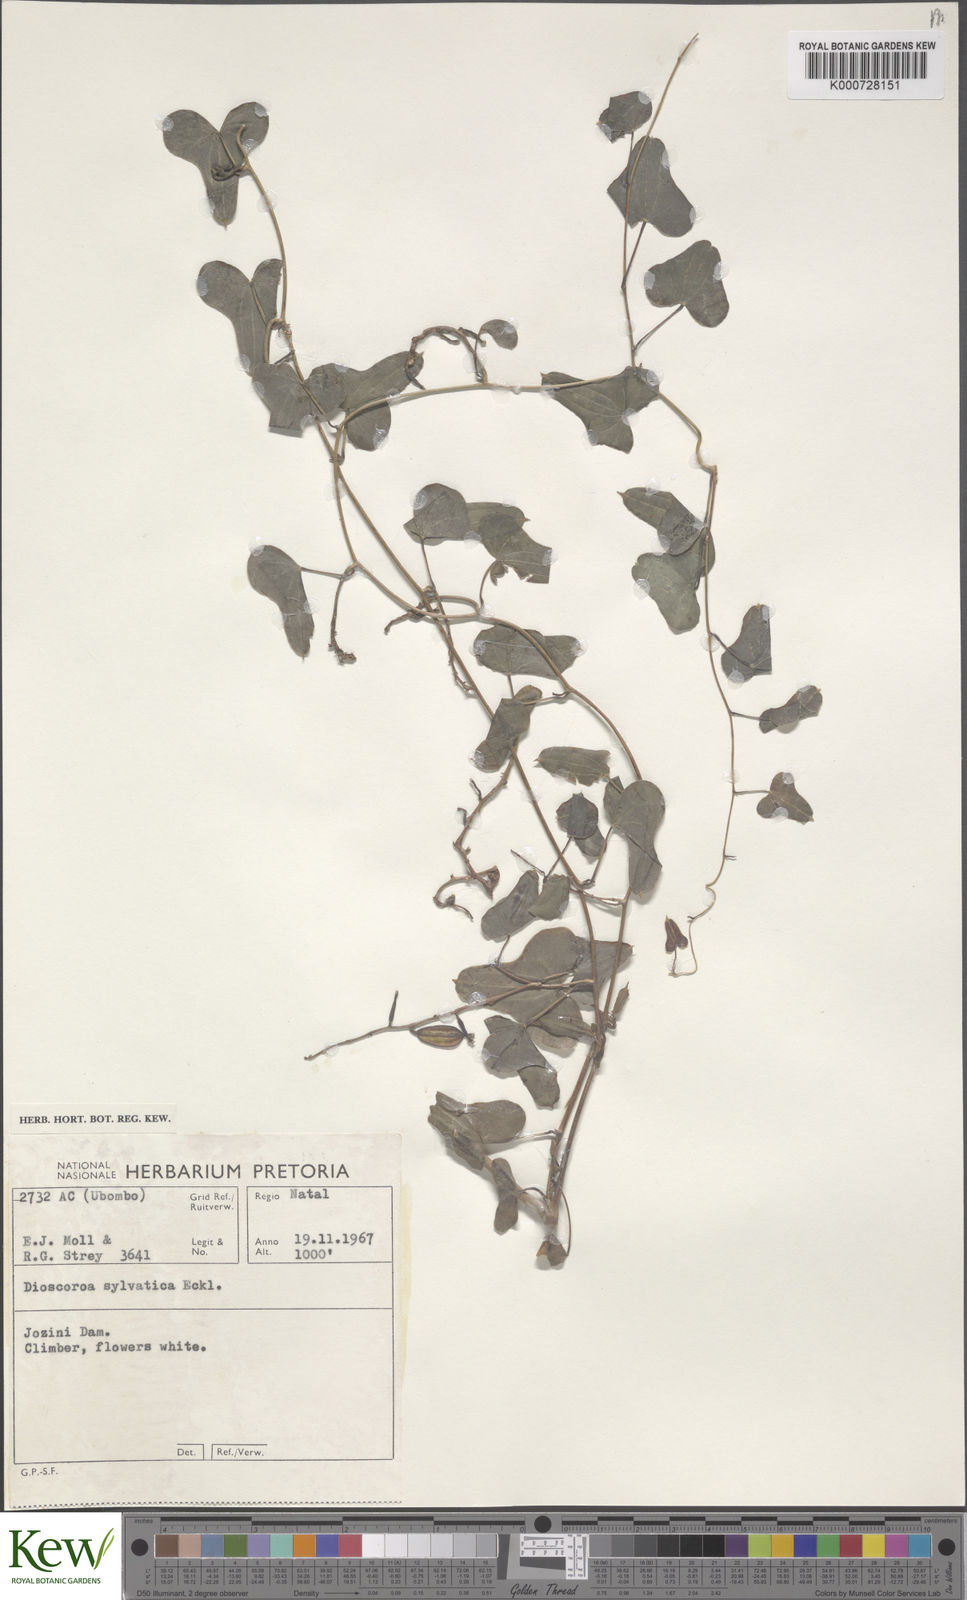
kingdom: Plantae
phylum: Tracheophyta
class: Liliopsida
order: Dioscoreales
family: Dioscoreaceae
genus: Dioscorea
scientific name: Dioscorea sylvatica
